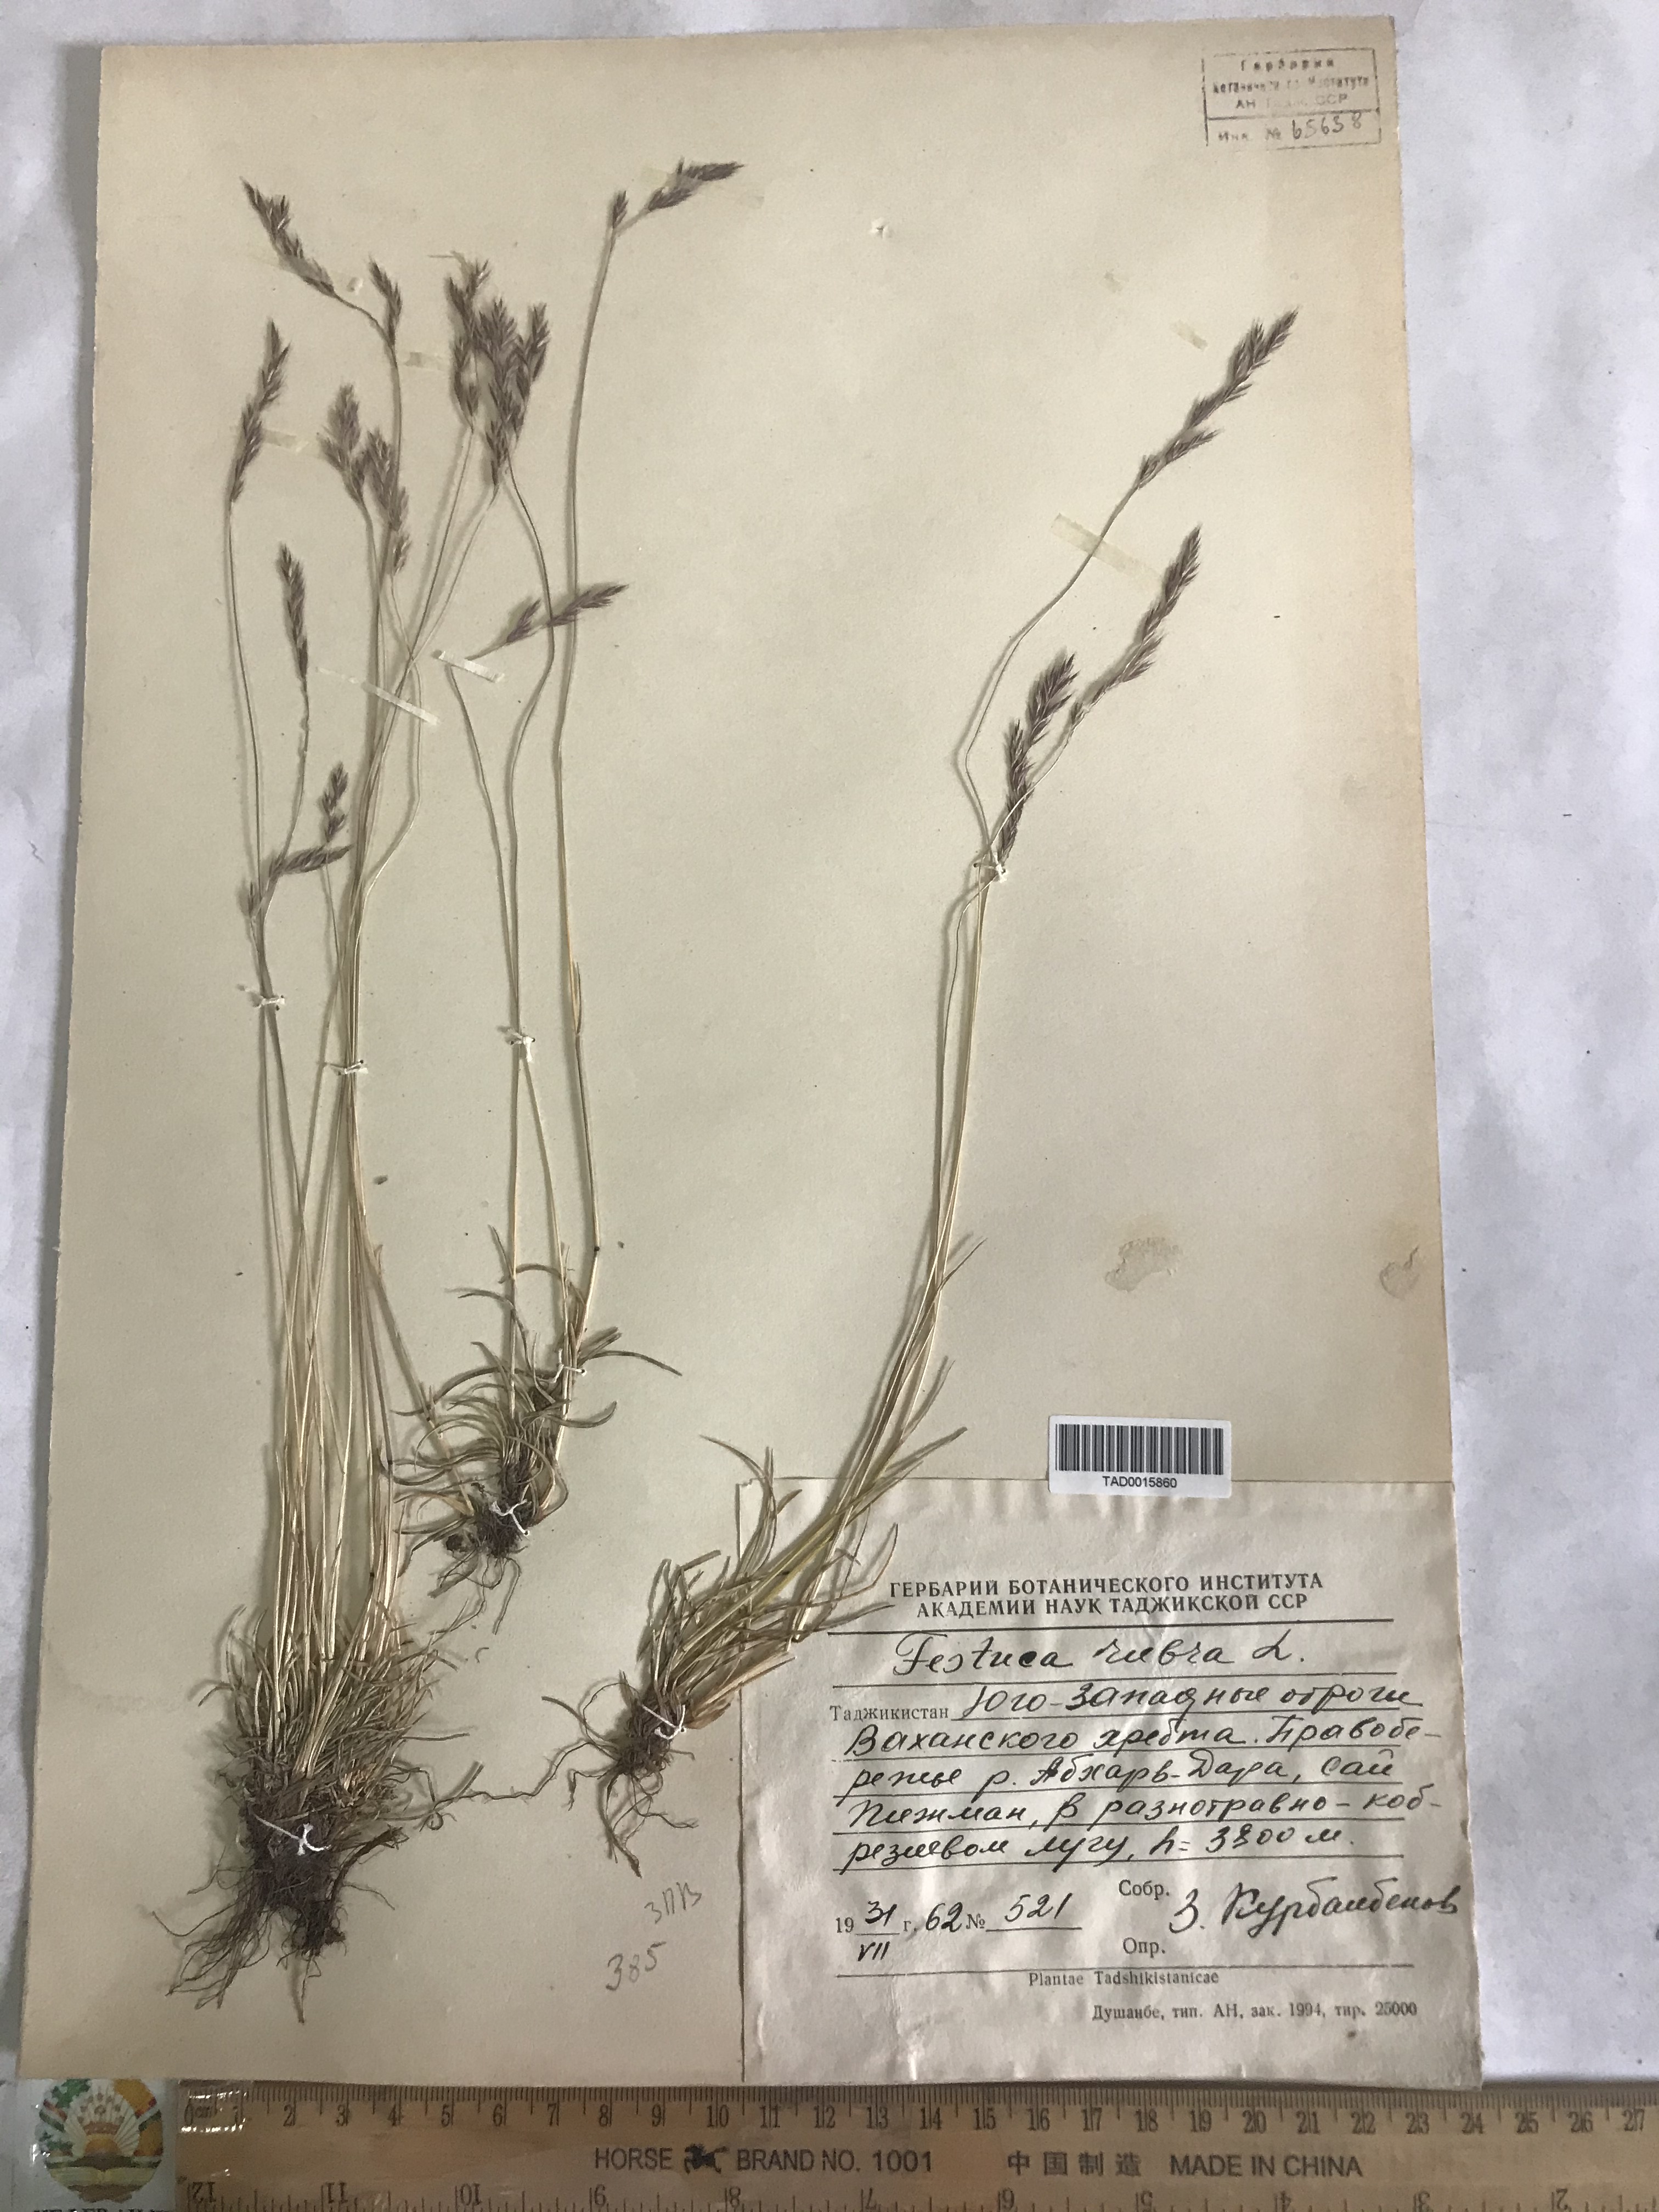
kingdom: Plantae
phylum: Tracheophyta
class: Liliopsida
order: Poales
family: Poaceae
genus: Festuca
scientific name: Festuca rubra
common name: Red fescue
